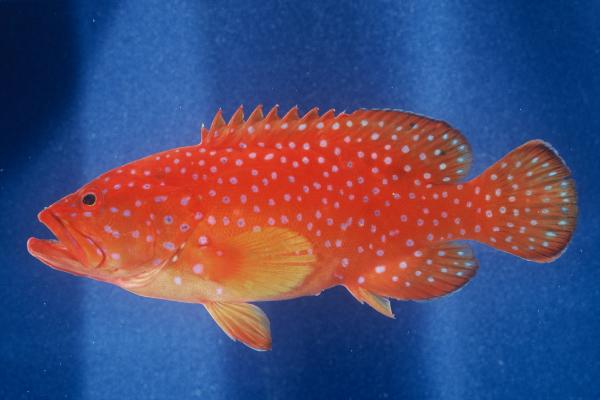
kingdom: Animalia
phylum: Chordata
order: Perciformes
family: Serranidae
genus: Cephalopholis
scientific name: Cephalopholis miniata
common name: Coral hind
